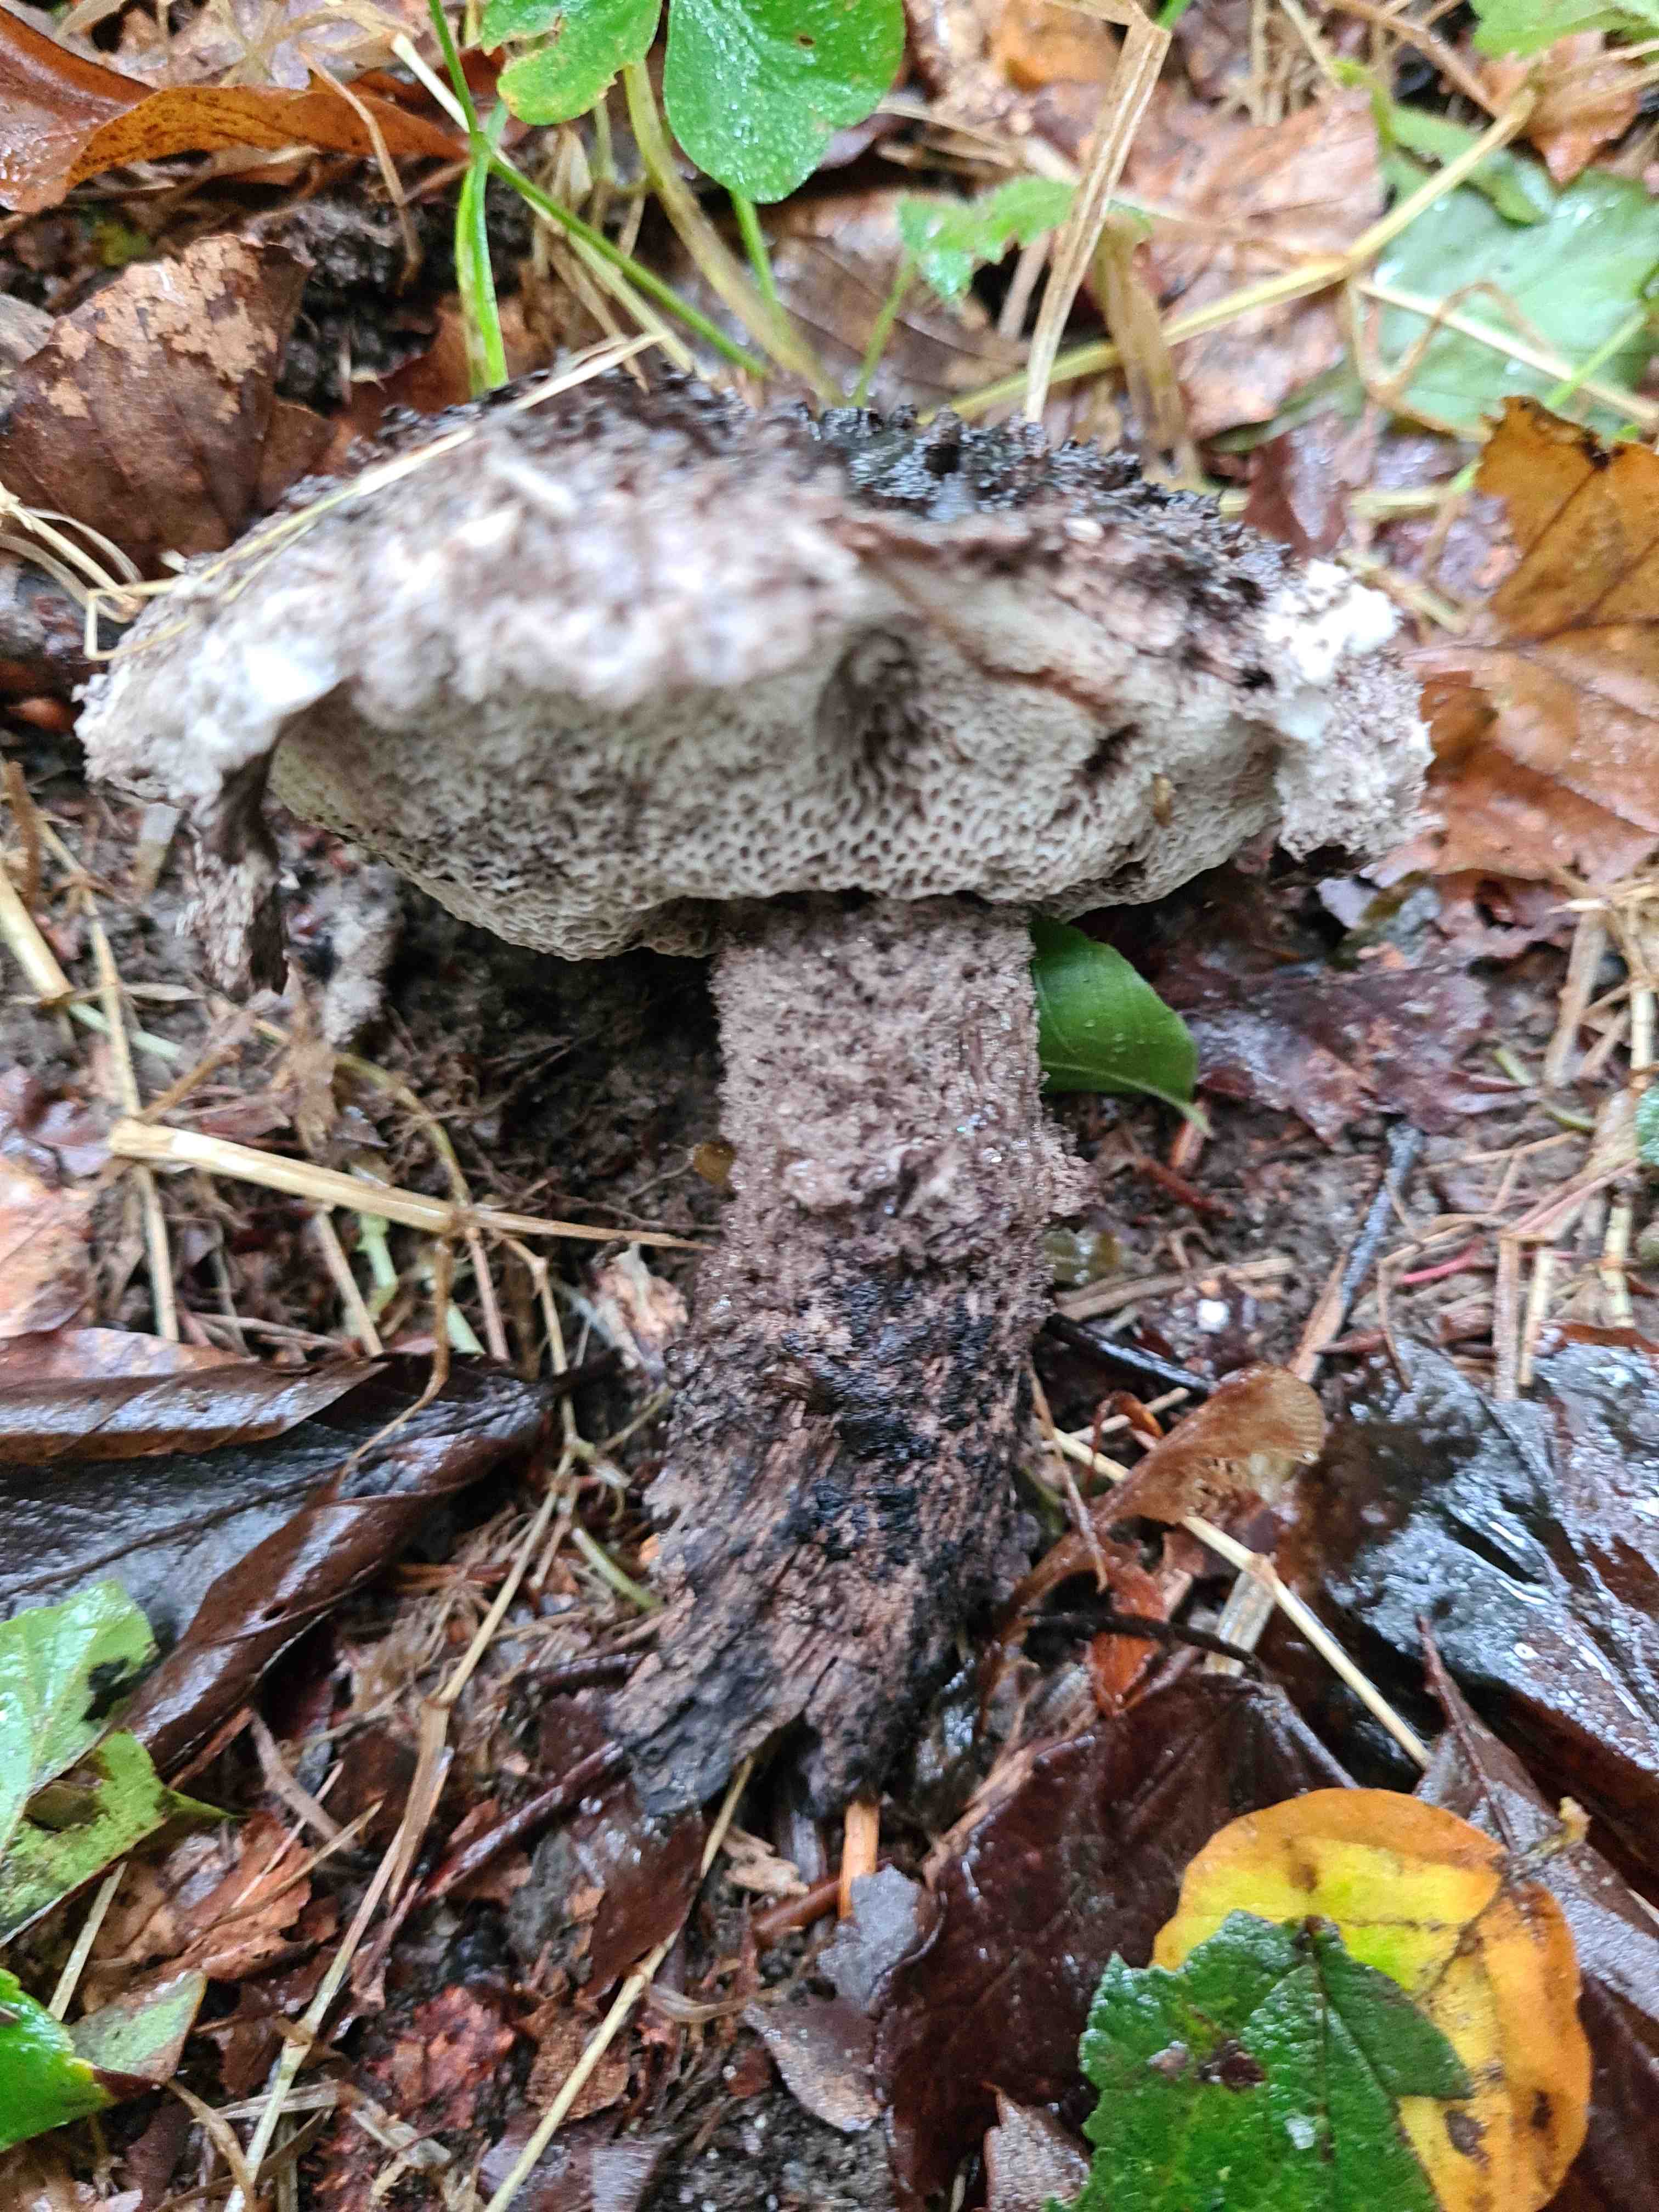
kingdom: Fungi
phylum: Basidiomycota
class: Agaricomycetes
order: Boletales
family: Boletaceae
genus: Strobilomyces
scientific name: Strobilomyces strobilaceus
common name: koglerørhat
